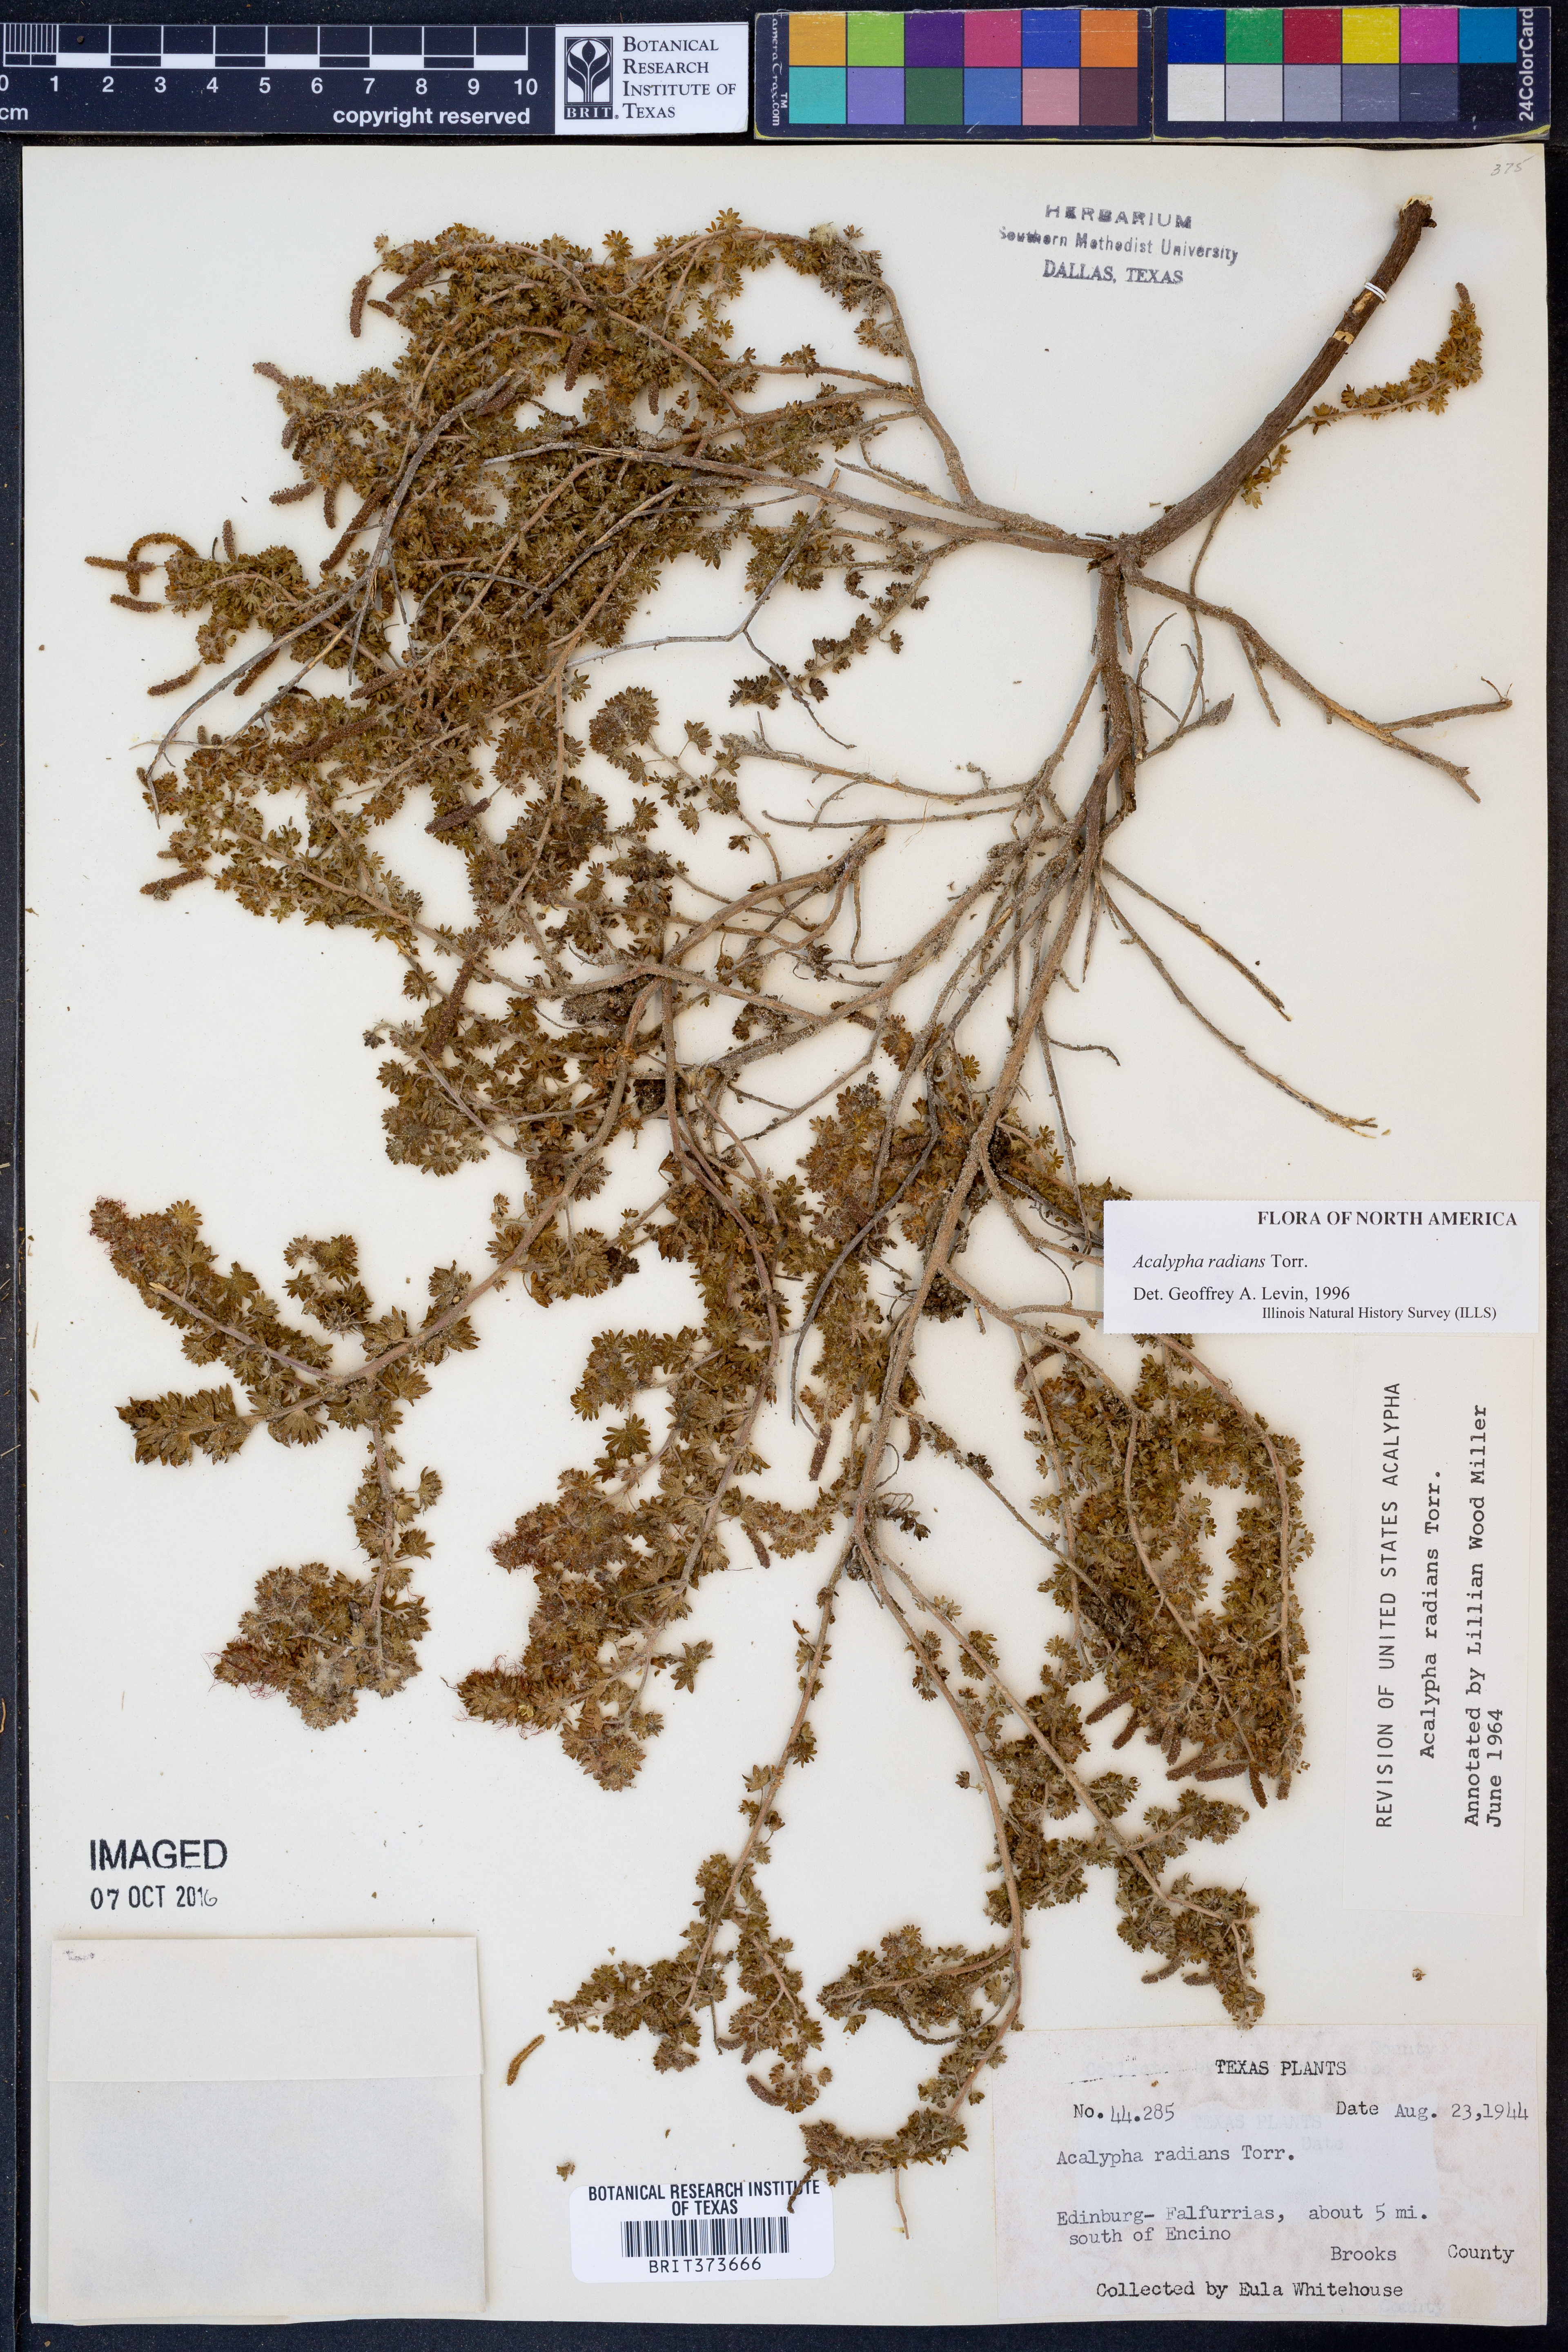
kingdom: Plantae
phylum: Tracheophyta
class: Magnoliopsida
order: Malpighiales
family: Euphorbiaceae
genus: Acalypha
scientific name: Acalypha radians
